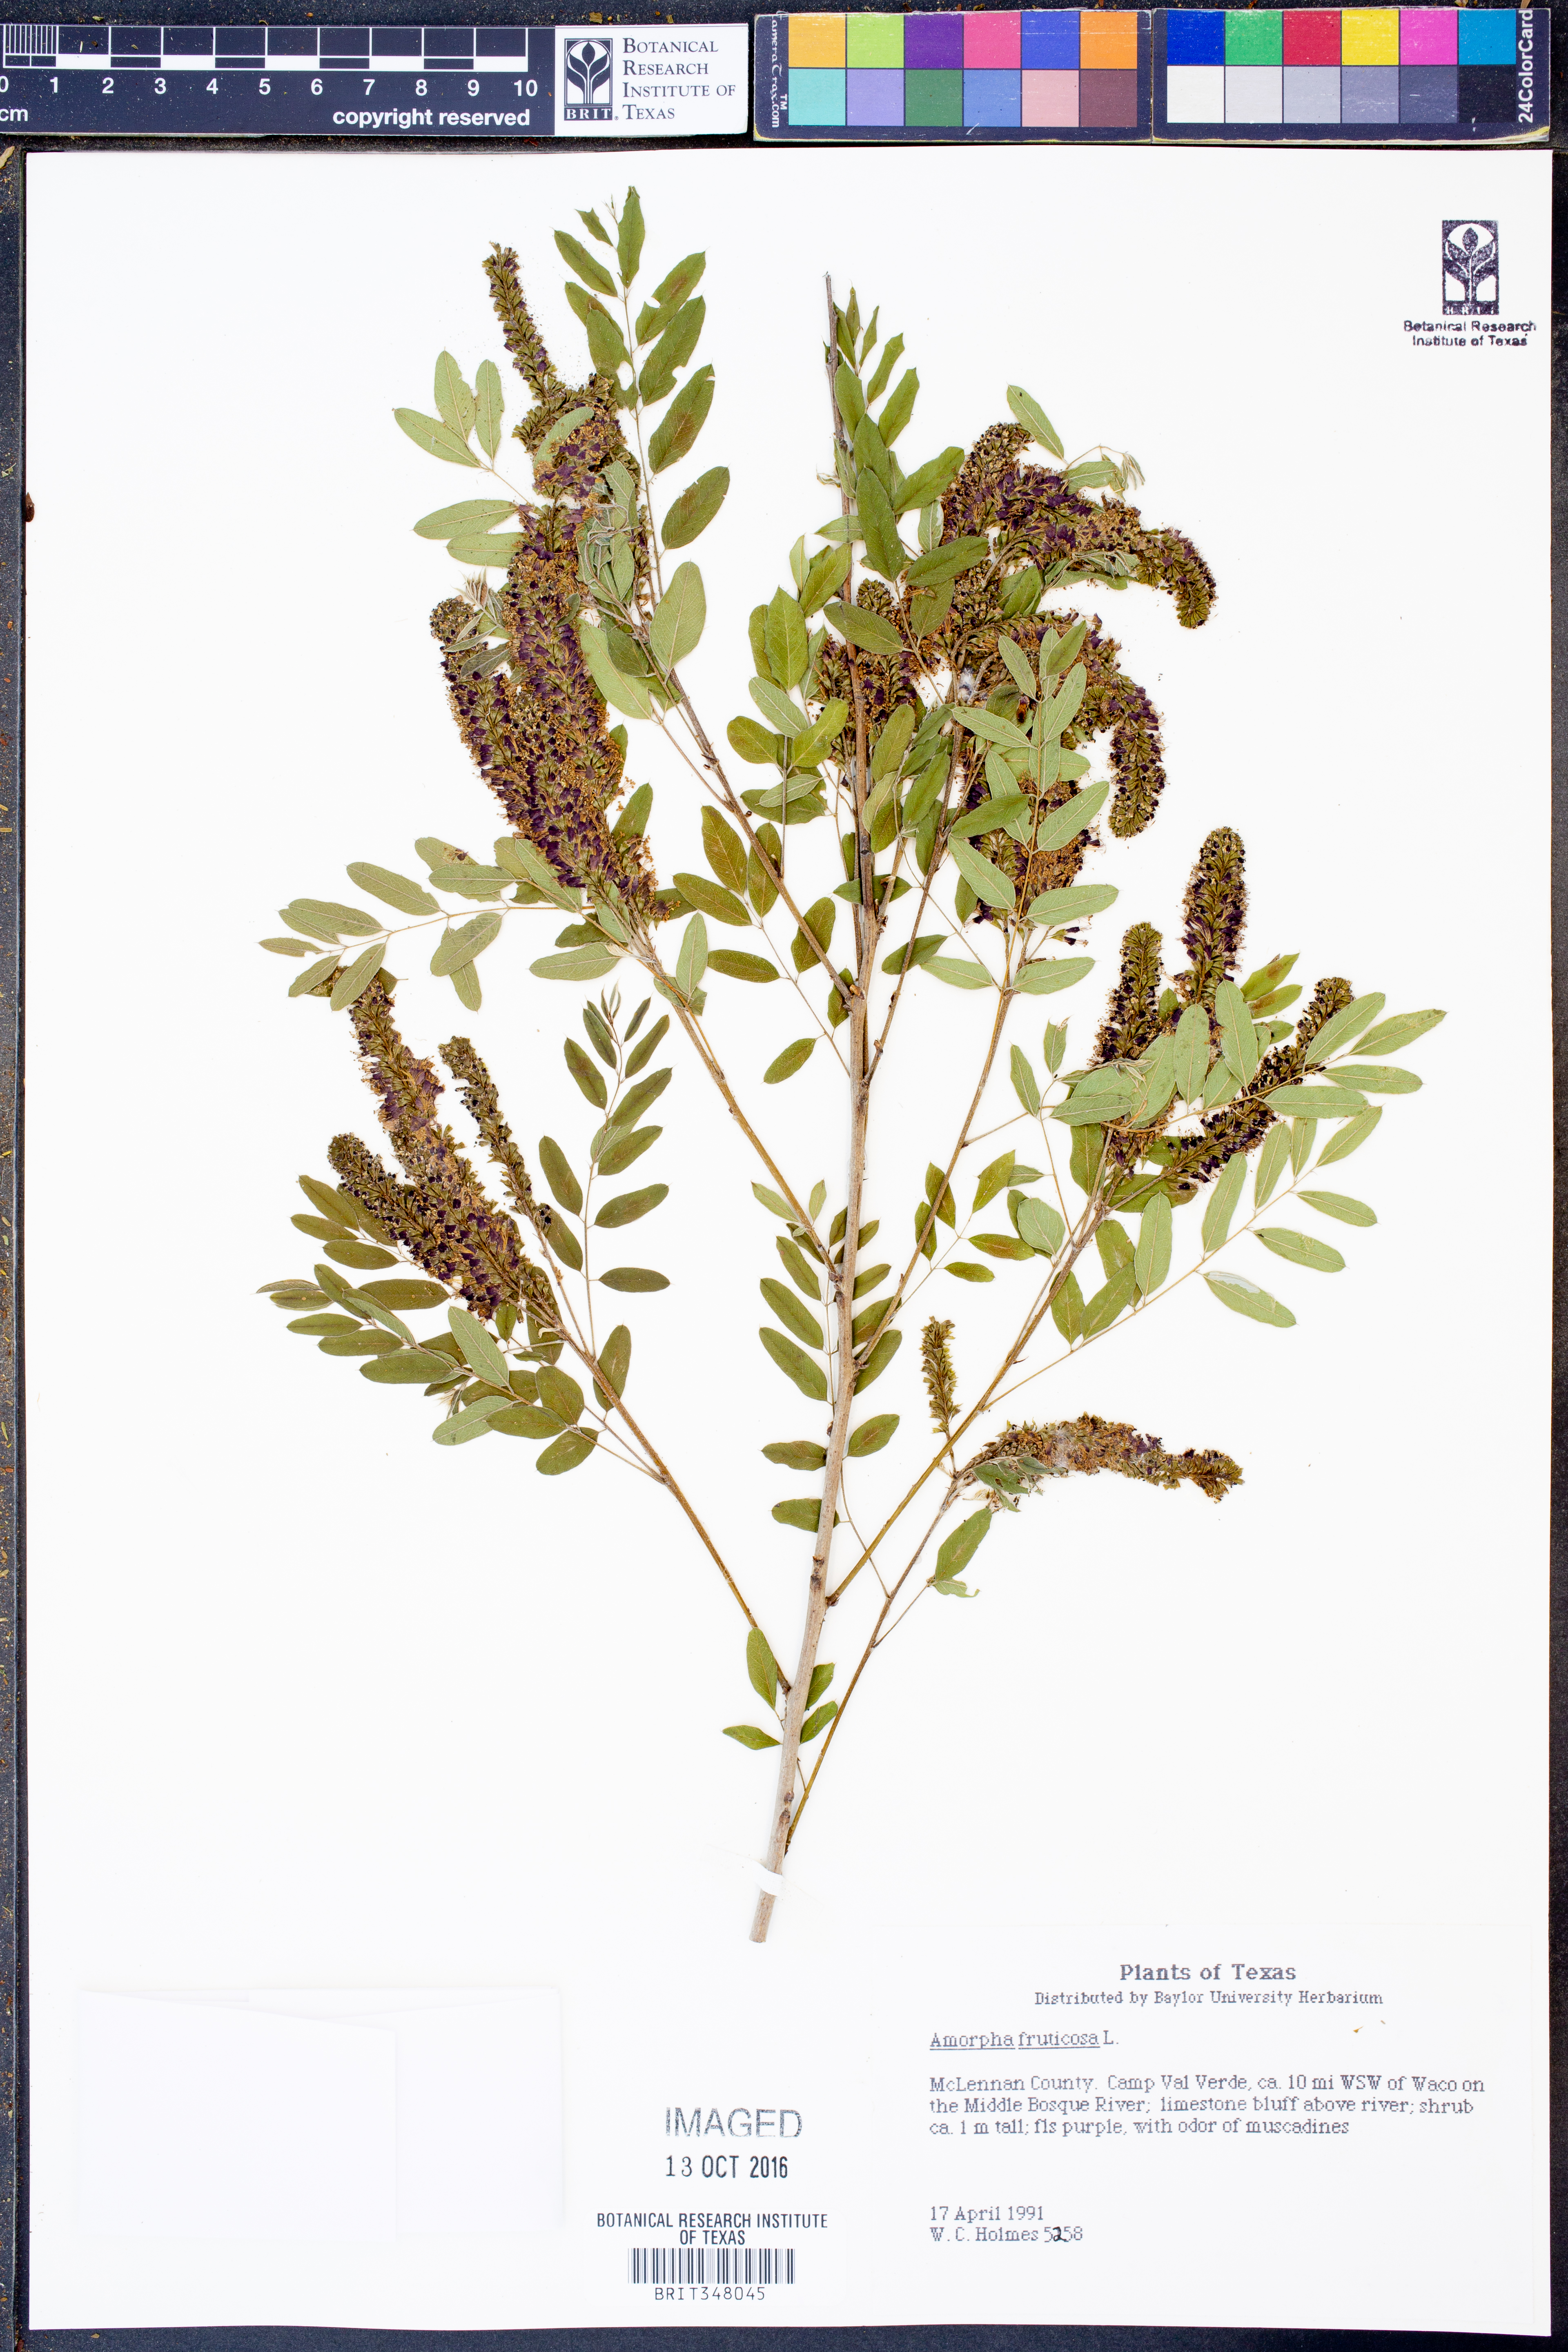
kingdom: Plantae
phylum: Tracheophyta
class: Magnoliopsida
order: Fabales
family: Fabaceae
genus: Amorpha
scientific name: Amorpha fruticosa
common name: False indigo
